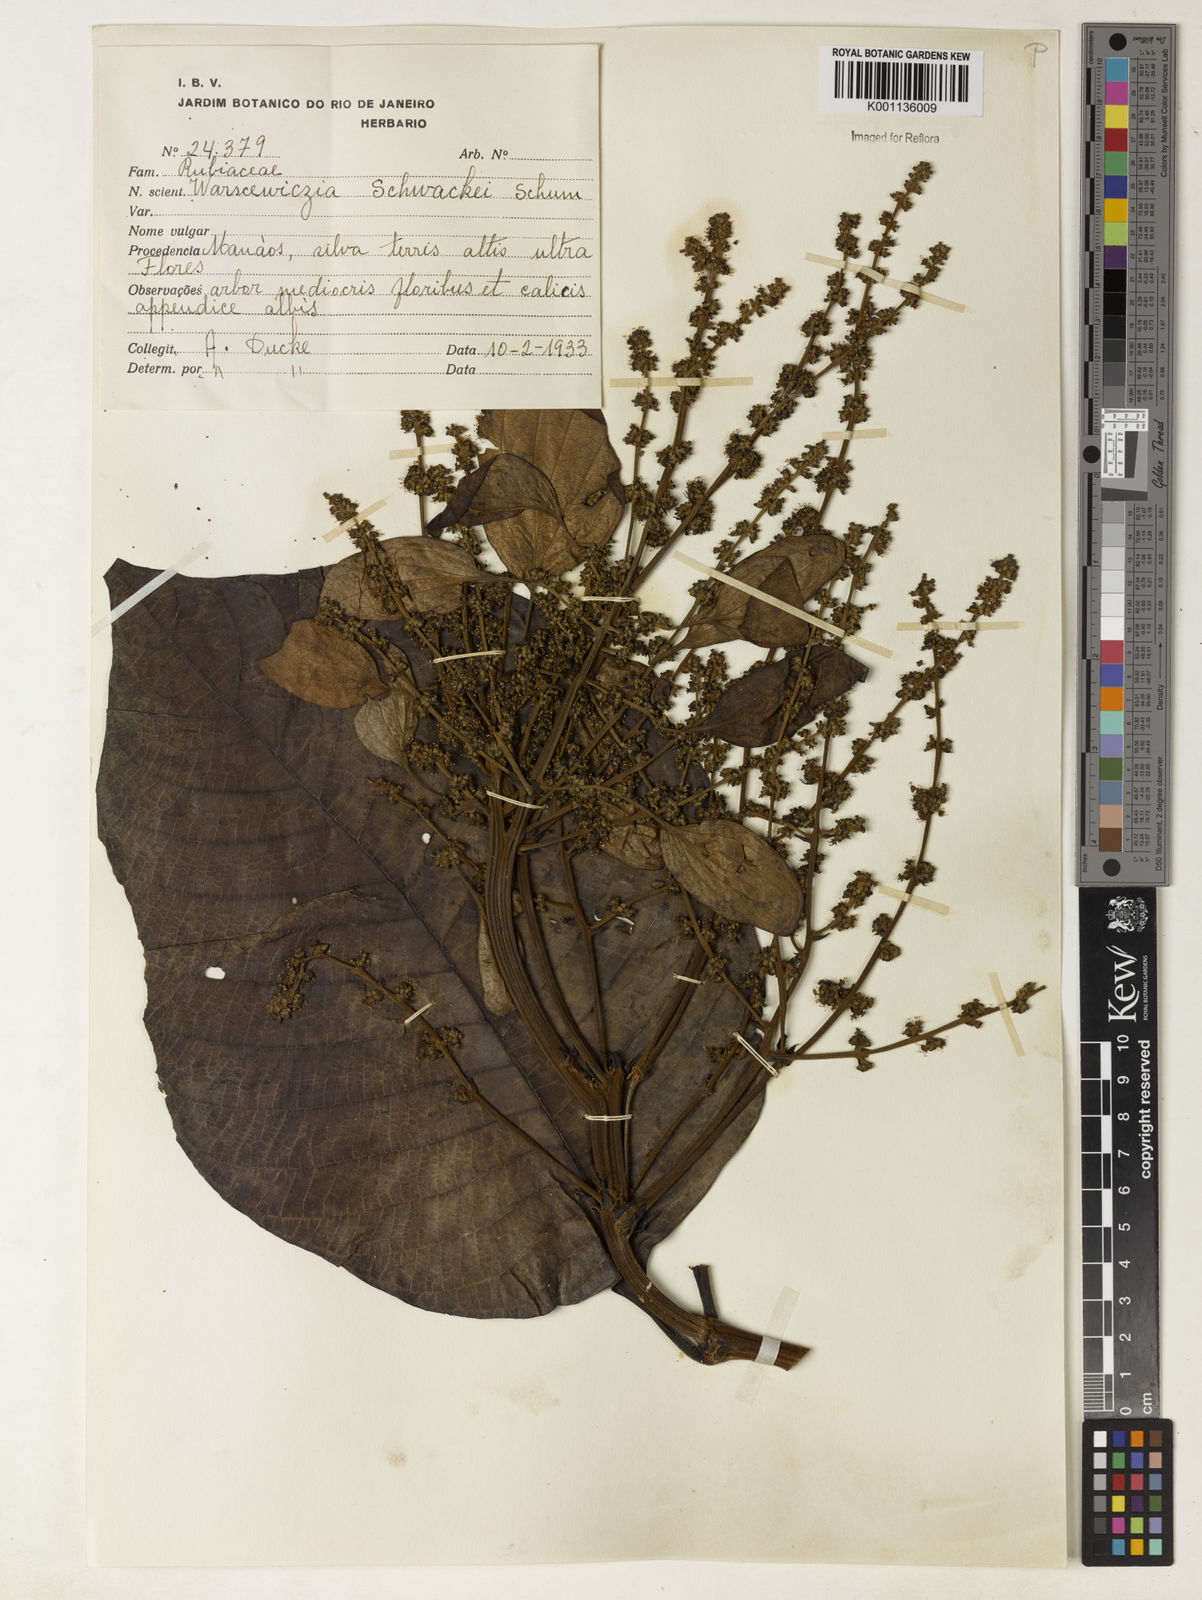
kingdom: Plantae
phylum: Tracheophyta
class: Magnoliopsida
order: Gentianales
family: Rubiaceae
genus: Warszewiczia
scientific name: Warszewiczia schwackei
